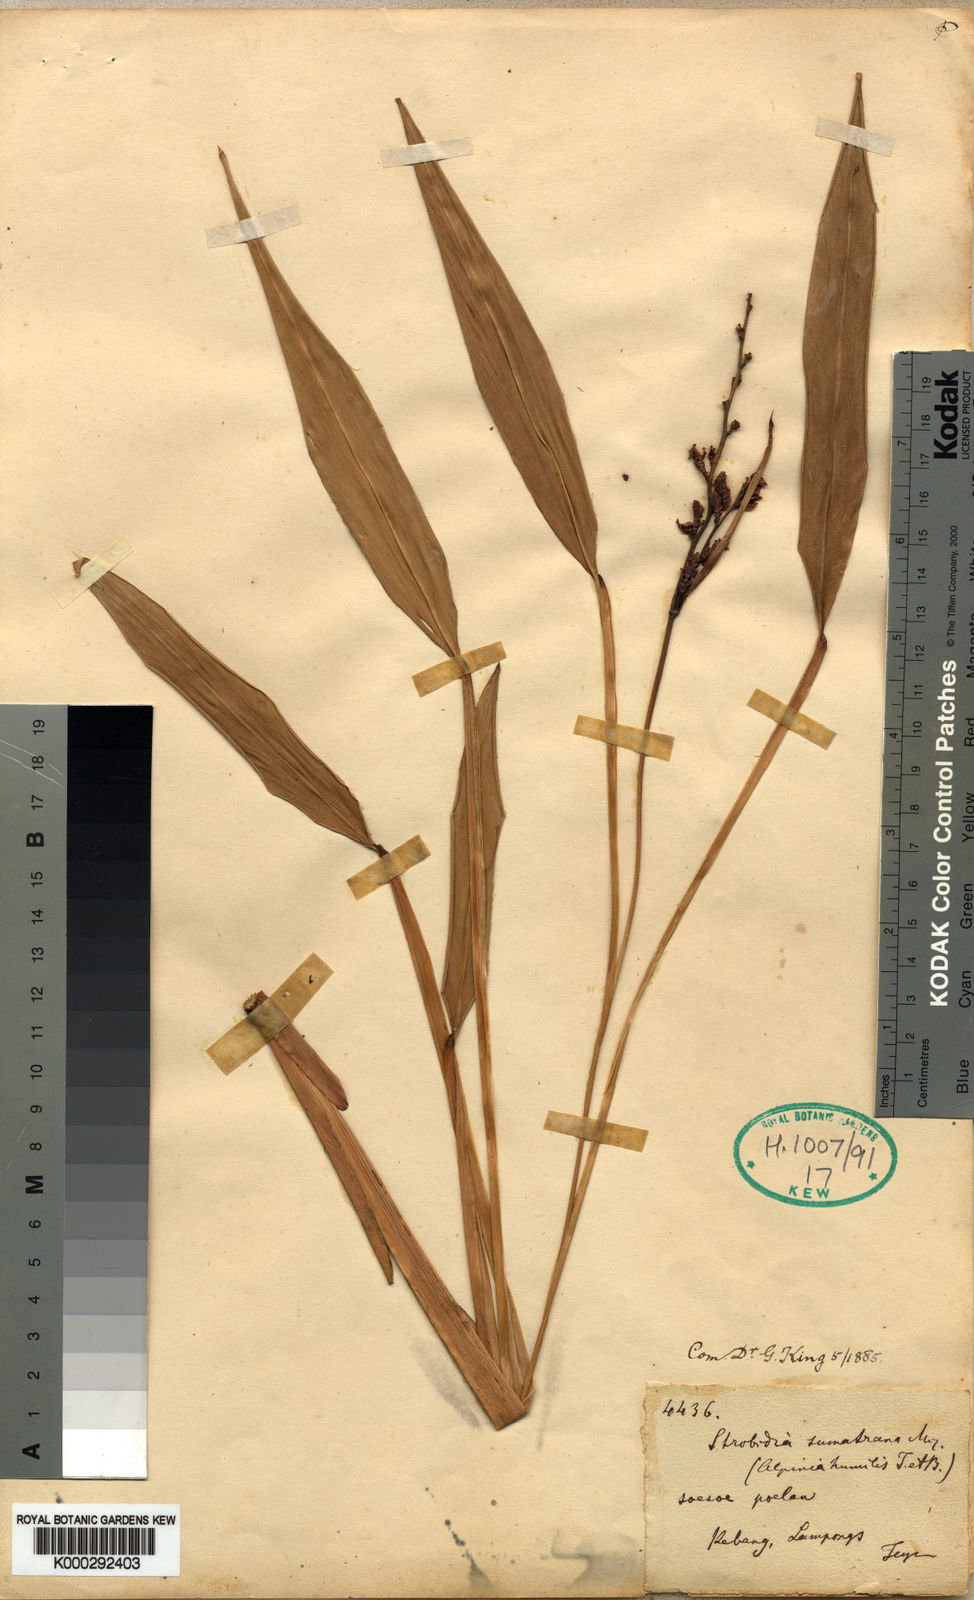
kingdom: Plantae
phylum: Tracheophyta
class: Liliopsida
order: Zingiberales
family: Zingiberaceae
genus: Alpinia
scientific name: Alpinia conchigera
